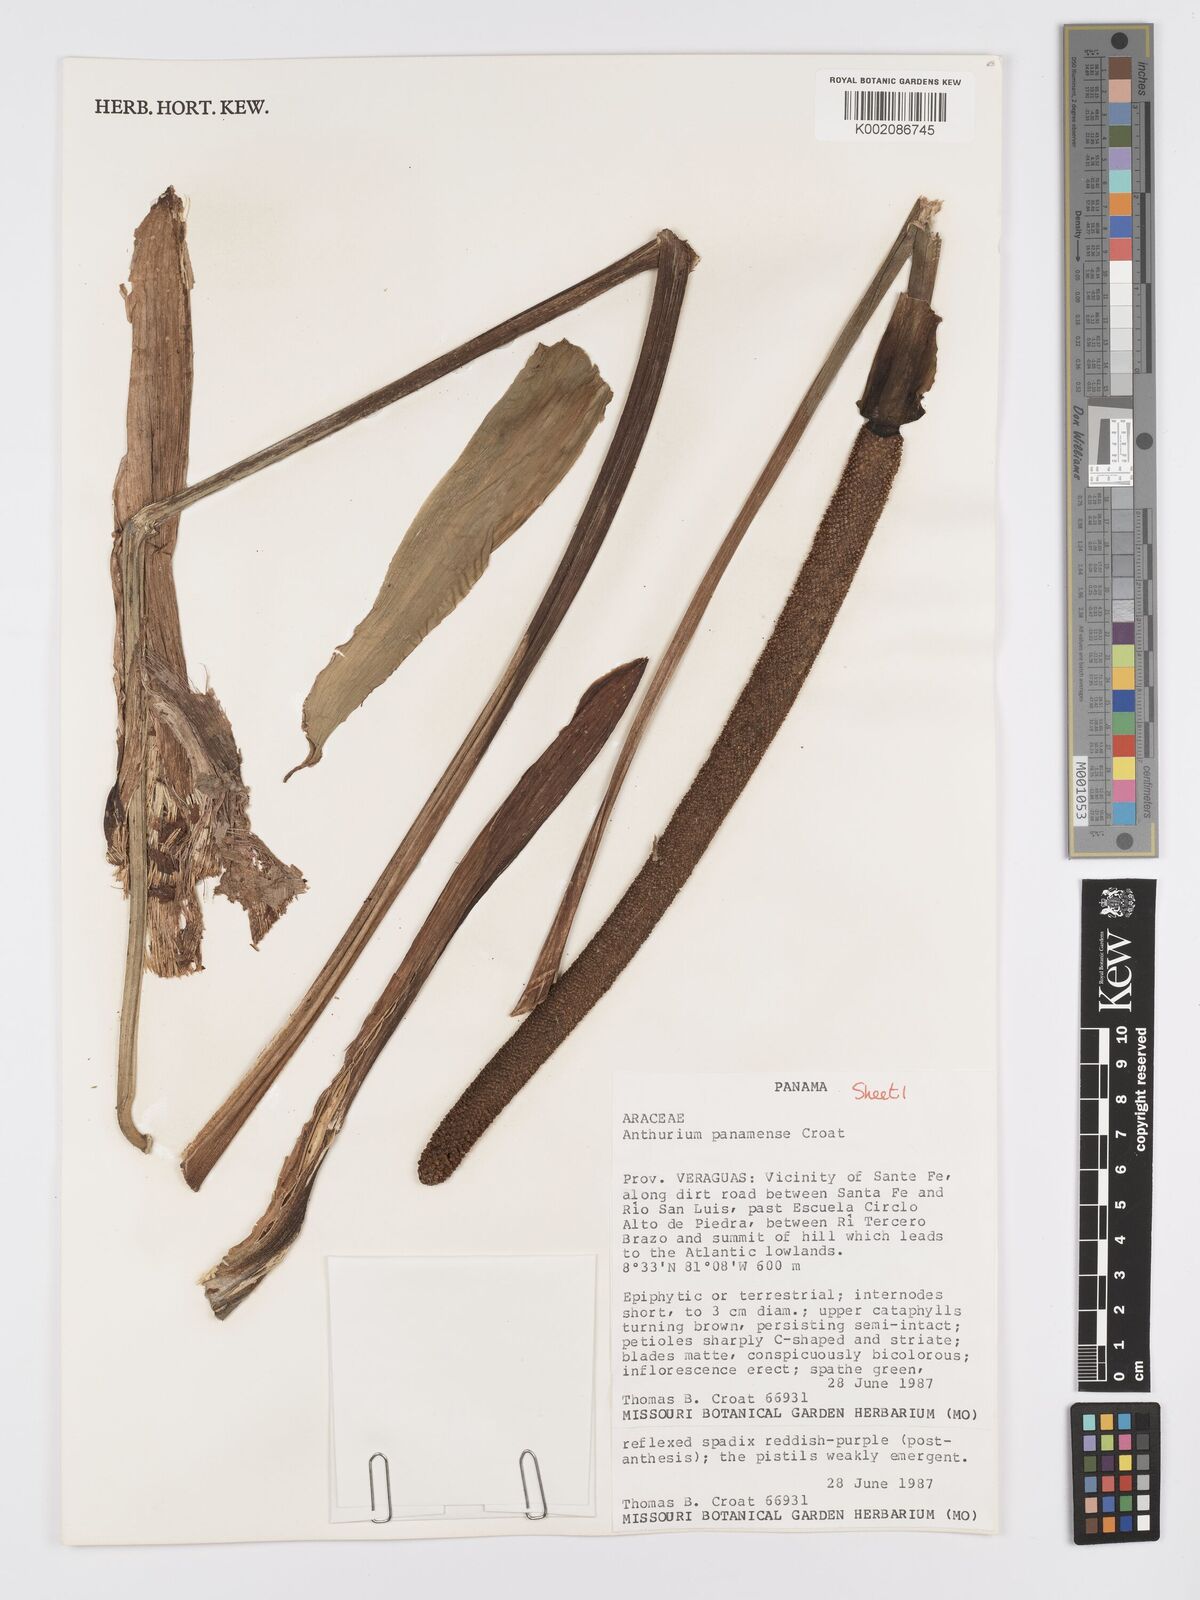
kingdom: Plantae
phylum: Tracheophyta
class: Liliopsida
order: Alismatales
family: Araceae
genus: Anthurium
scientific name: Anthurium panamense
